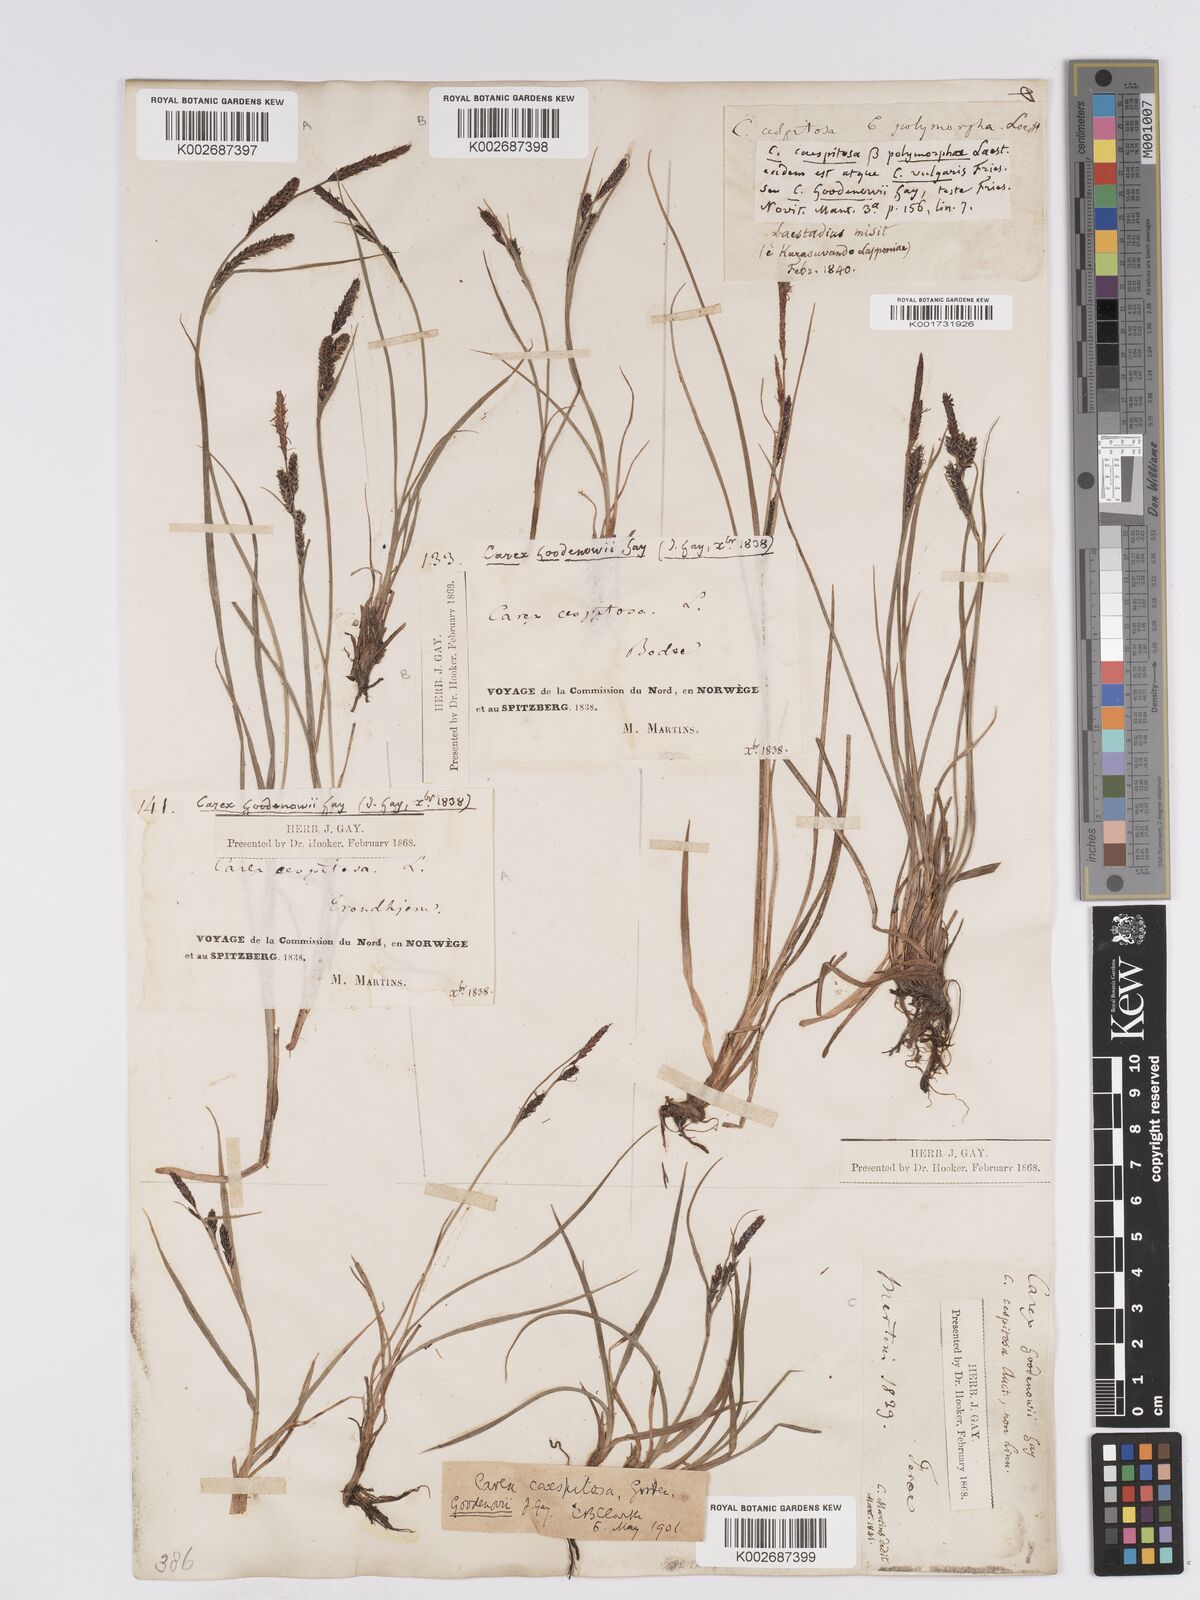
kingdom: Plantae
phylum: Tracheophyta
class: Liliopsida
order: Poales
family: Cyperaceae
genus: Carex
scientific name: Carex nigra
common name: Common sedge
